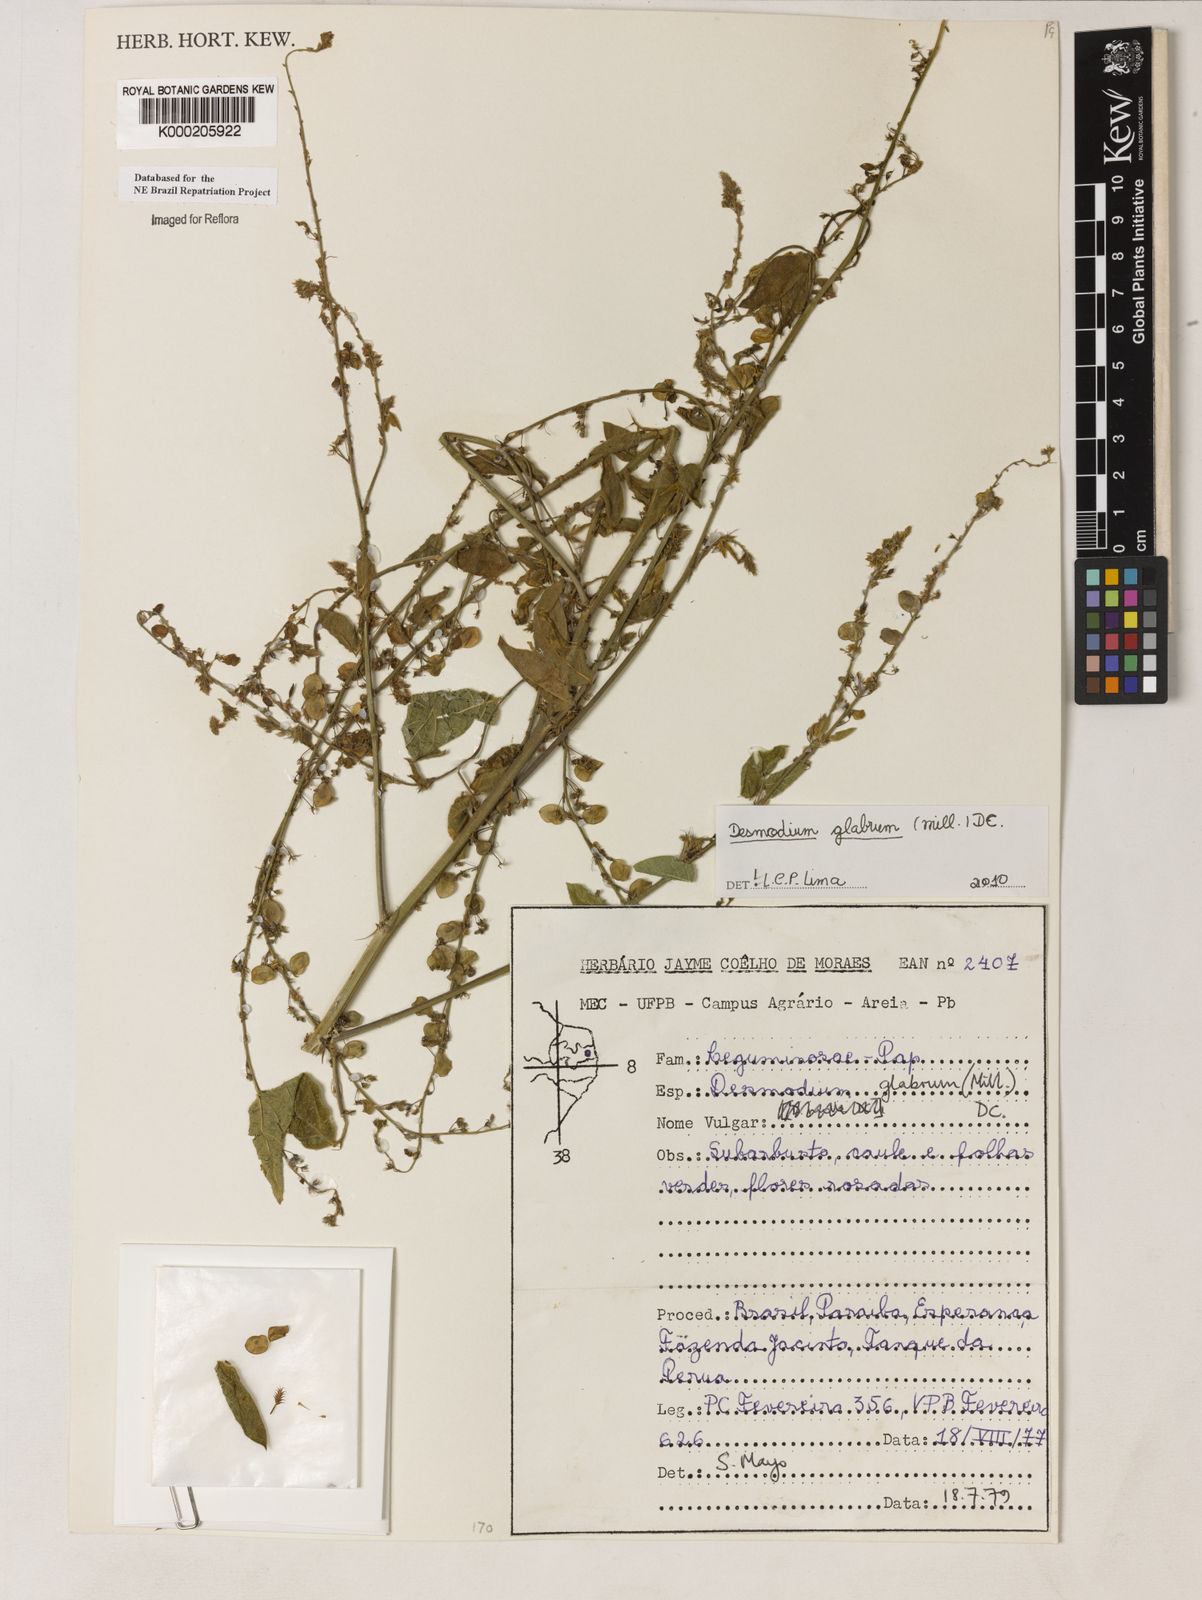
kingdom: Plantae
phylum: Tracheophyta
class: Magnoliopsida
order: Fabales
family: Fabaceae
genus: Desmodium
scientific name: Desmodium glabrum
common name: Zarzabacoa dulce
